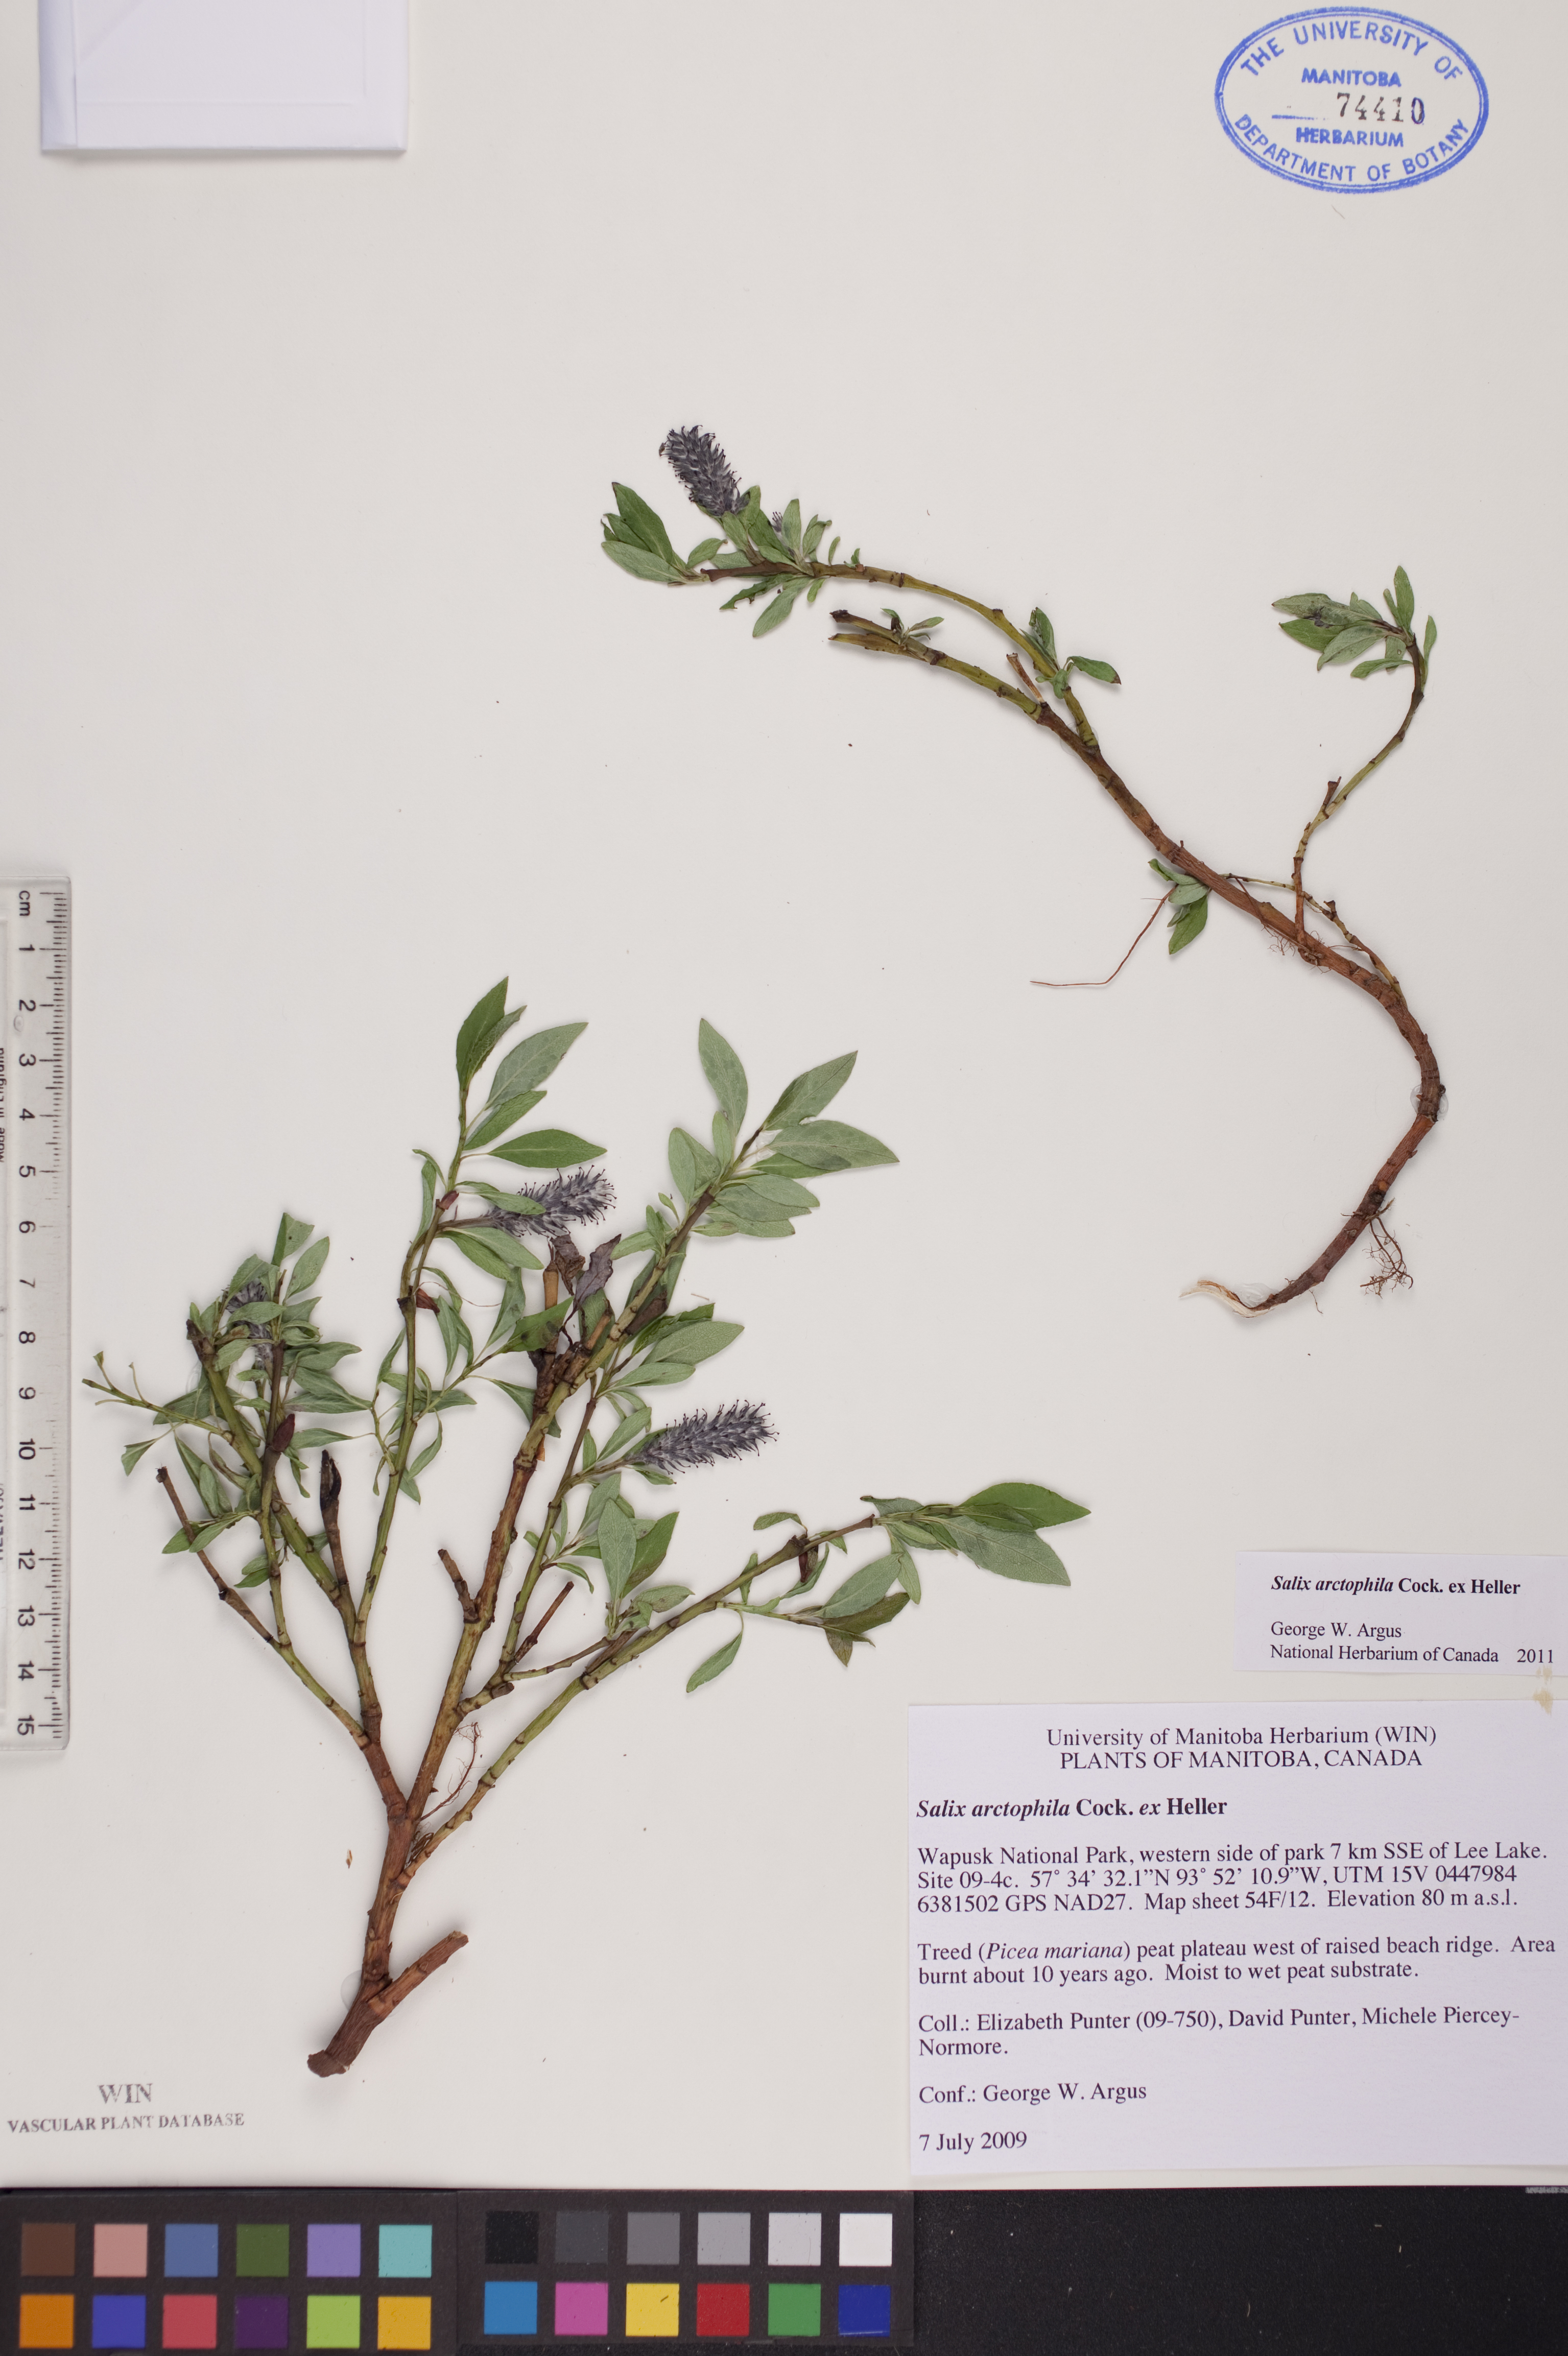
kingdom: Plantae
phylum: Tracheophyta
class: Magnoliopsida
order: Malpighiales
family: Salicaceae
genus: Salix
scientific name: Salix arctophila
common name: Greenland willow
